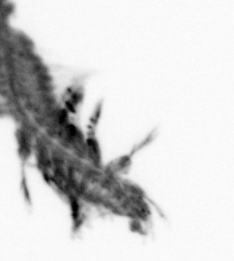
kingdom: Animalia
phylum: Annelida
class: Polychaeta
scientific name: Polychaeta
